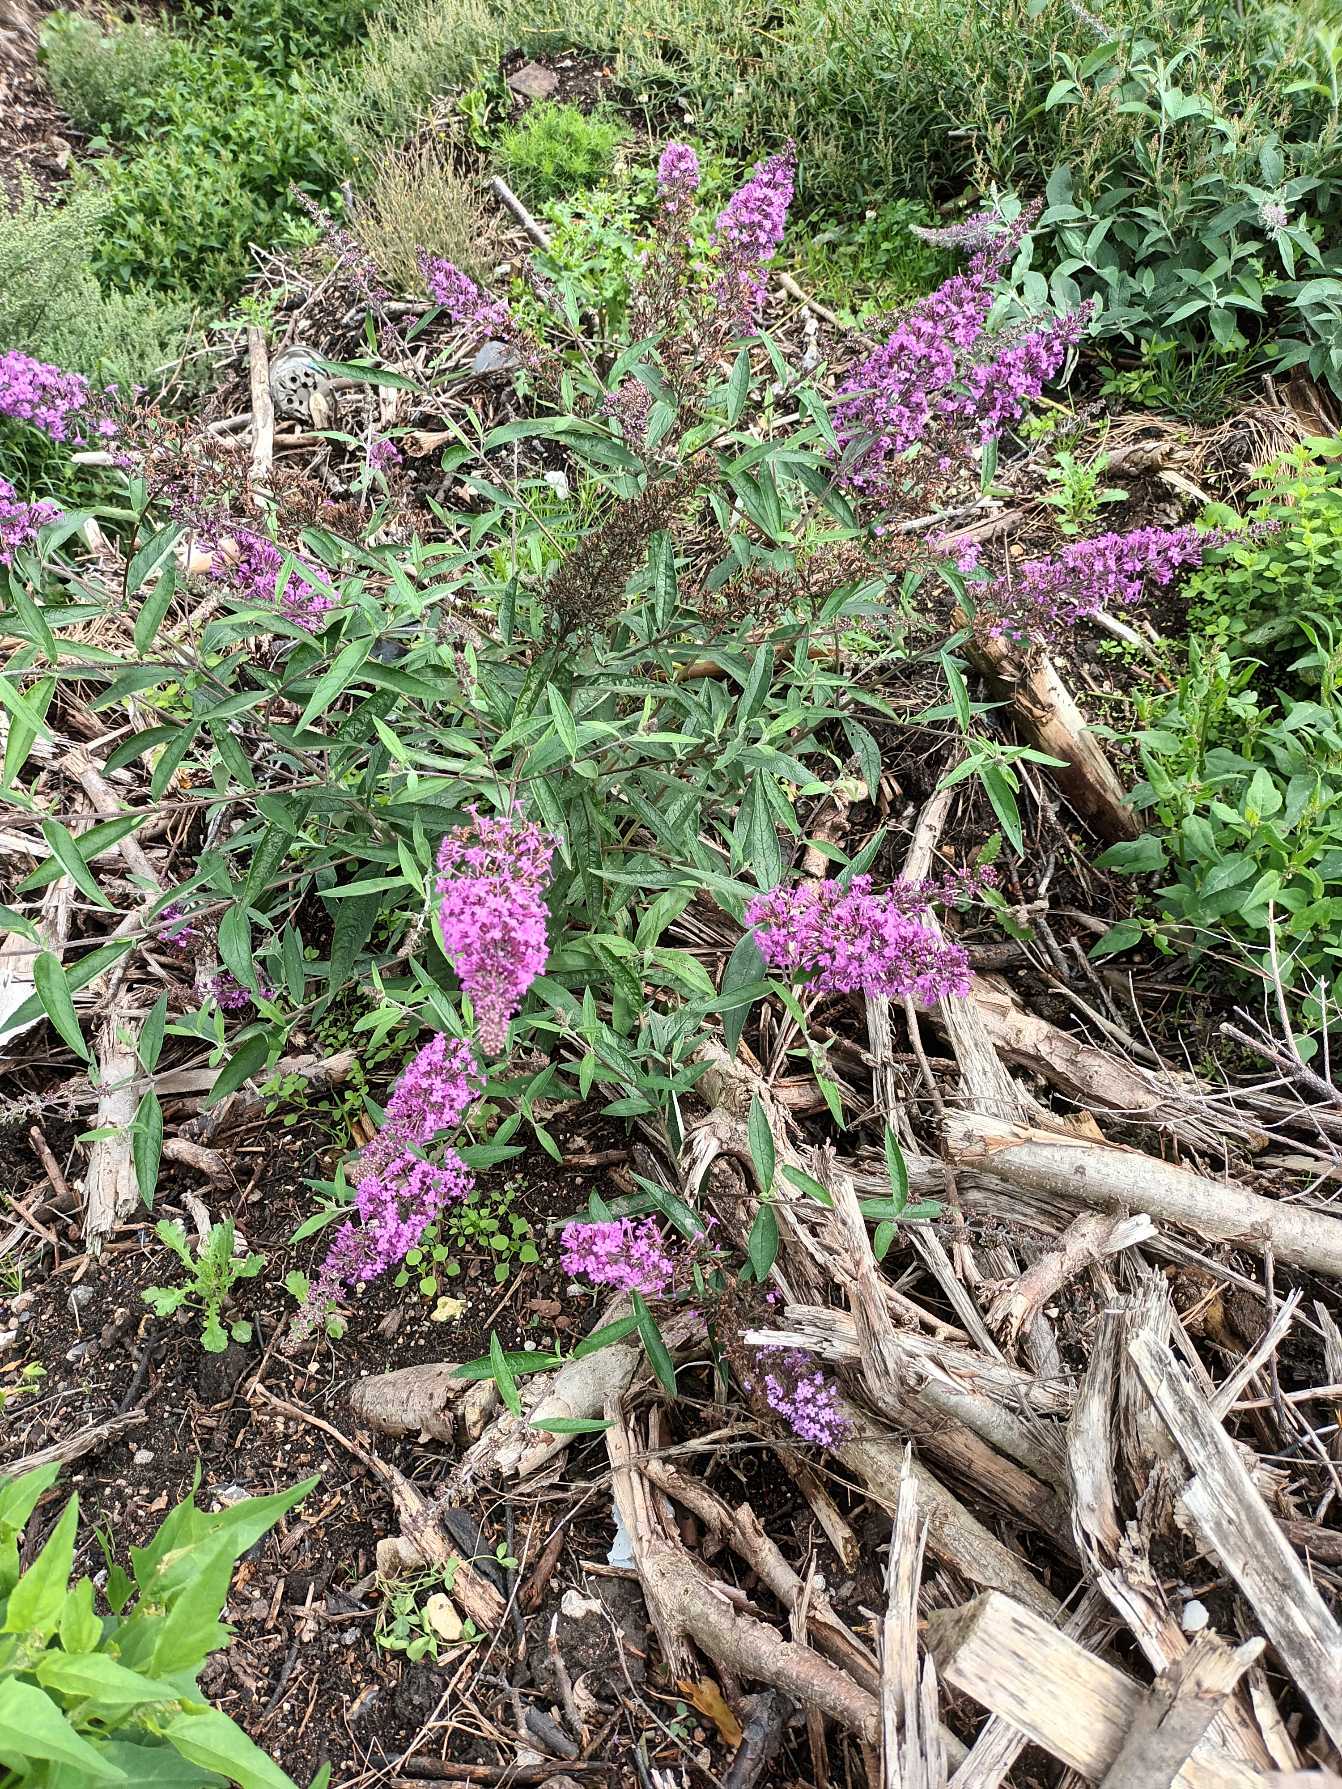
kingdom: Plantae
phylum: Tracheophyta
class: Magnoliopsida
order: Lamiales
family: Scrophulariaceae
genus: Buddleja
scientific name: Buddleja davidii
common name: Sommerfuglebusk
